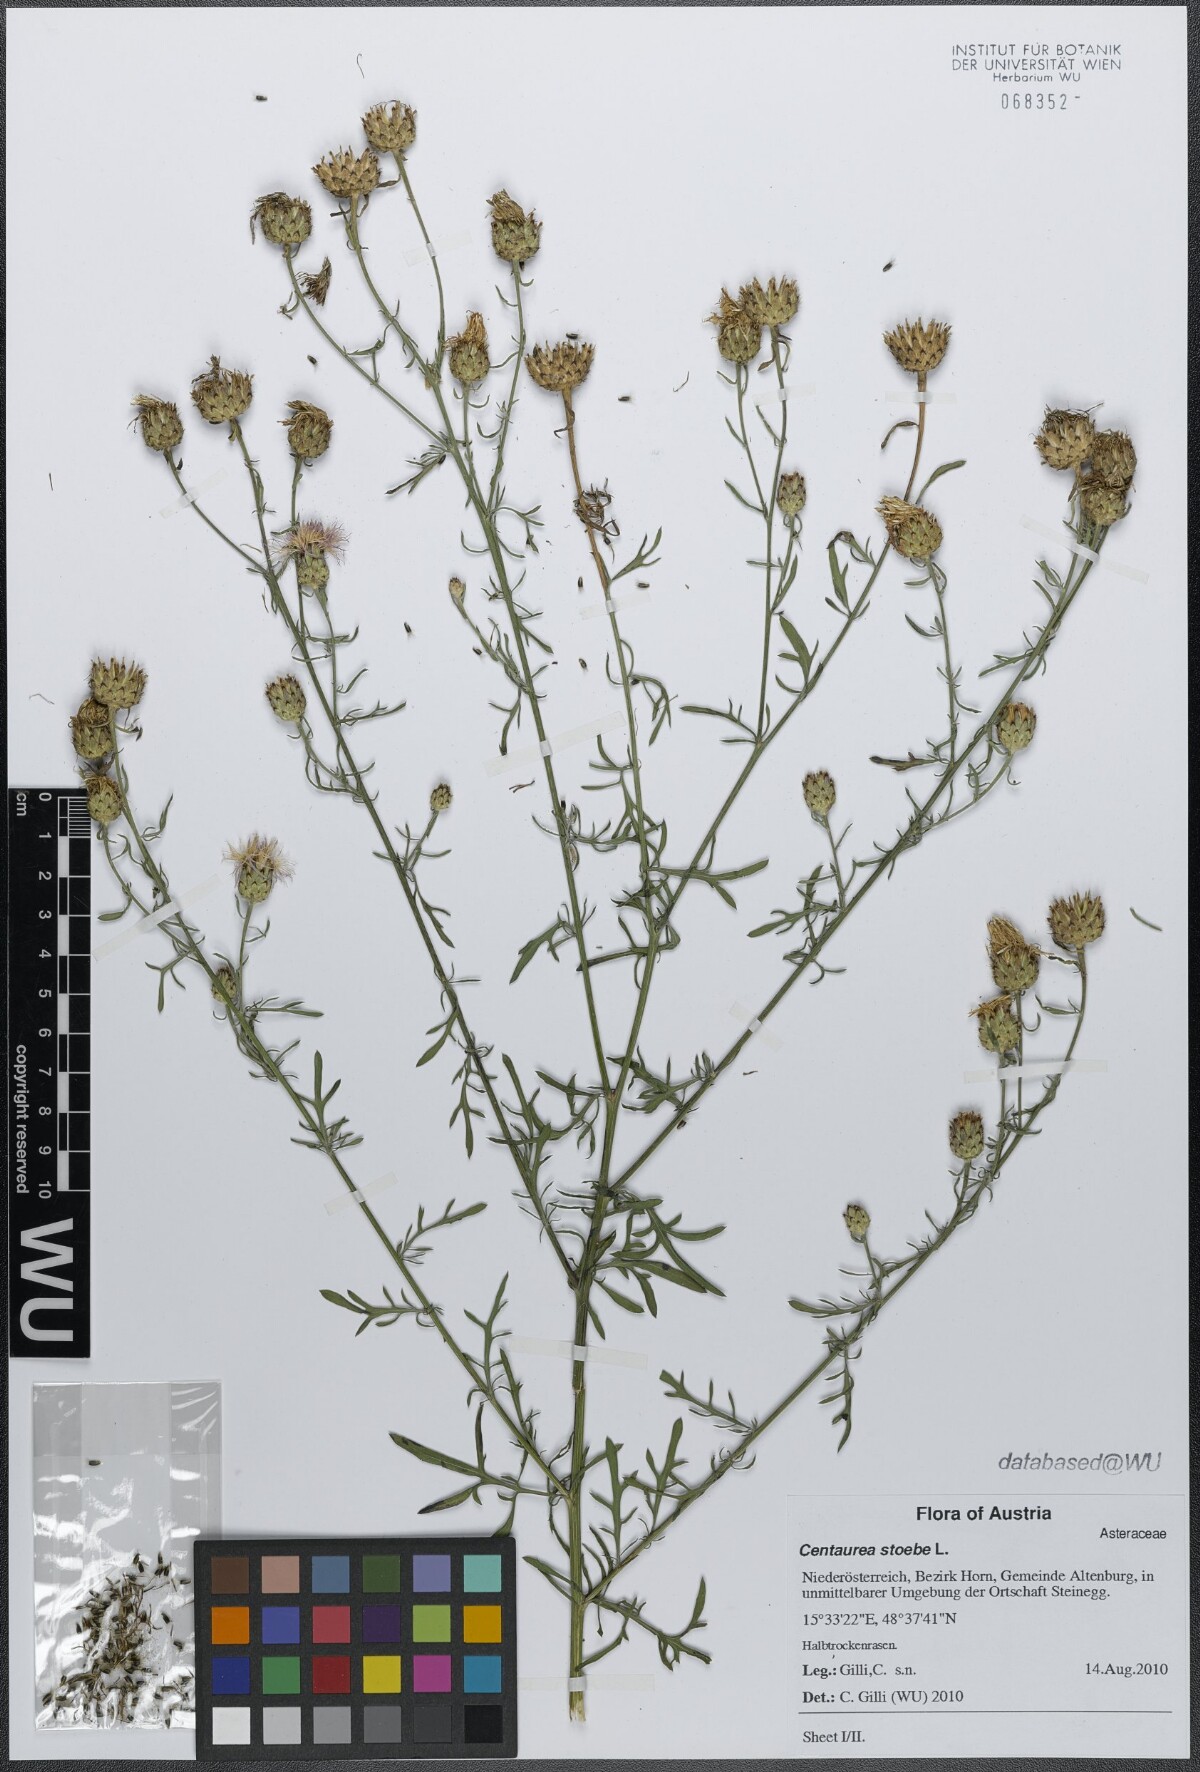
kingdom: Plantae
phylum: Tracheophyta
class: Magnoliopsida
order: Asterales
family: Asteraceae
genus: Centaurea
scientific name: Centaurea stoebe
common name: Spotted knapweed
